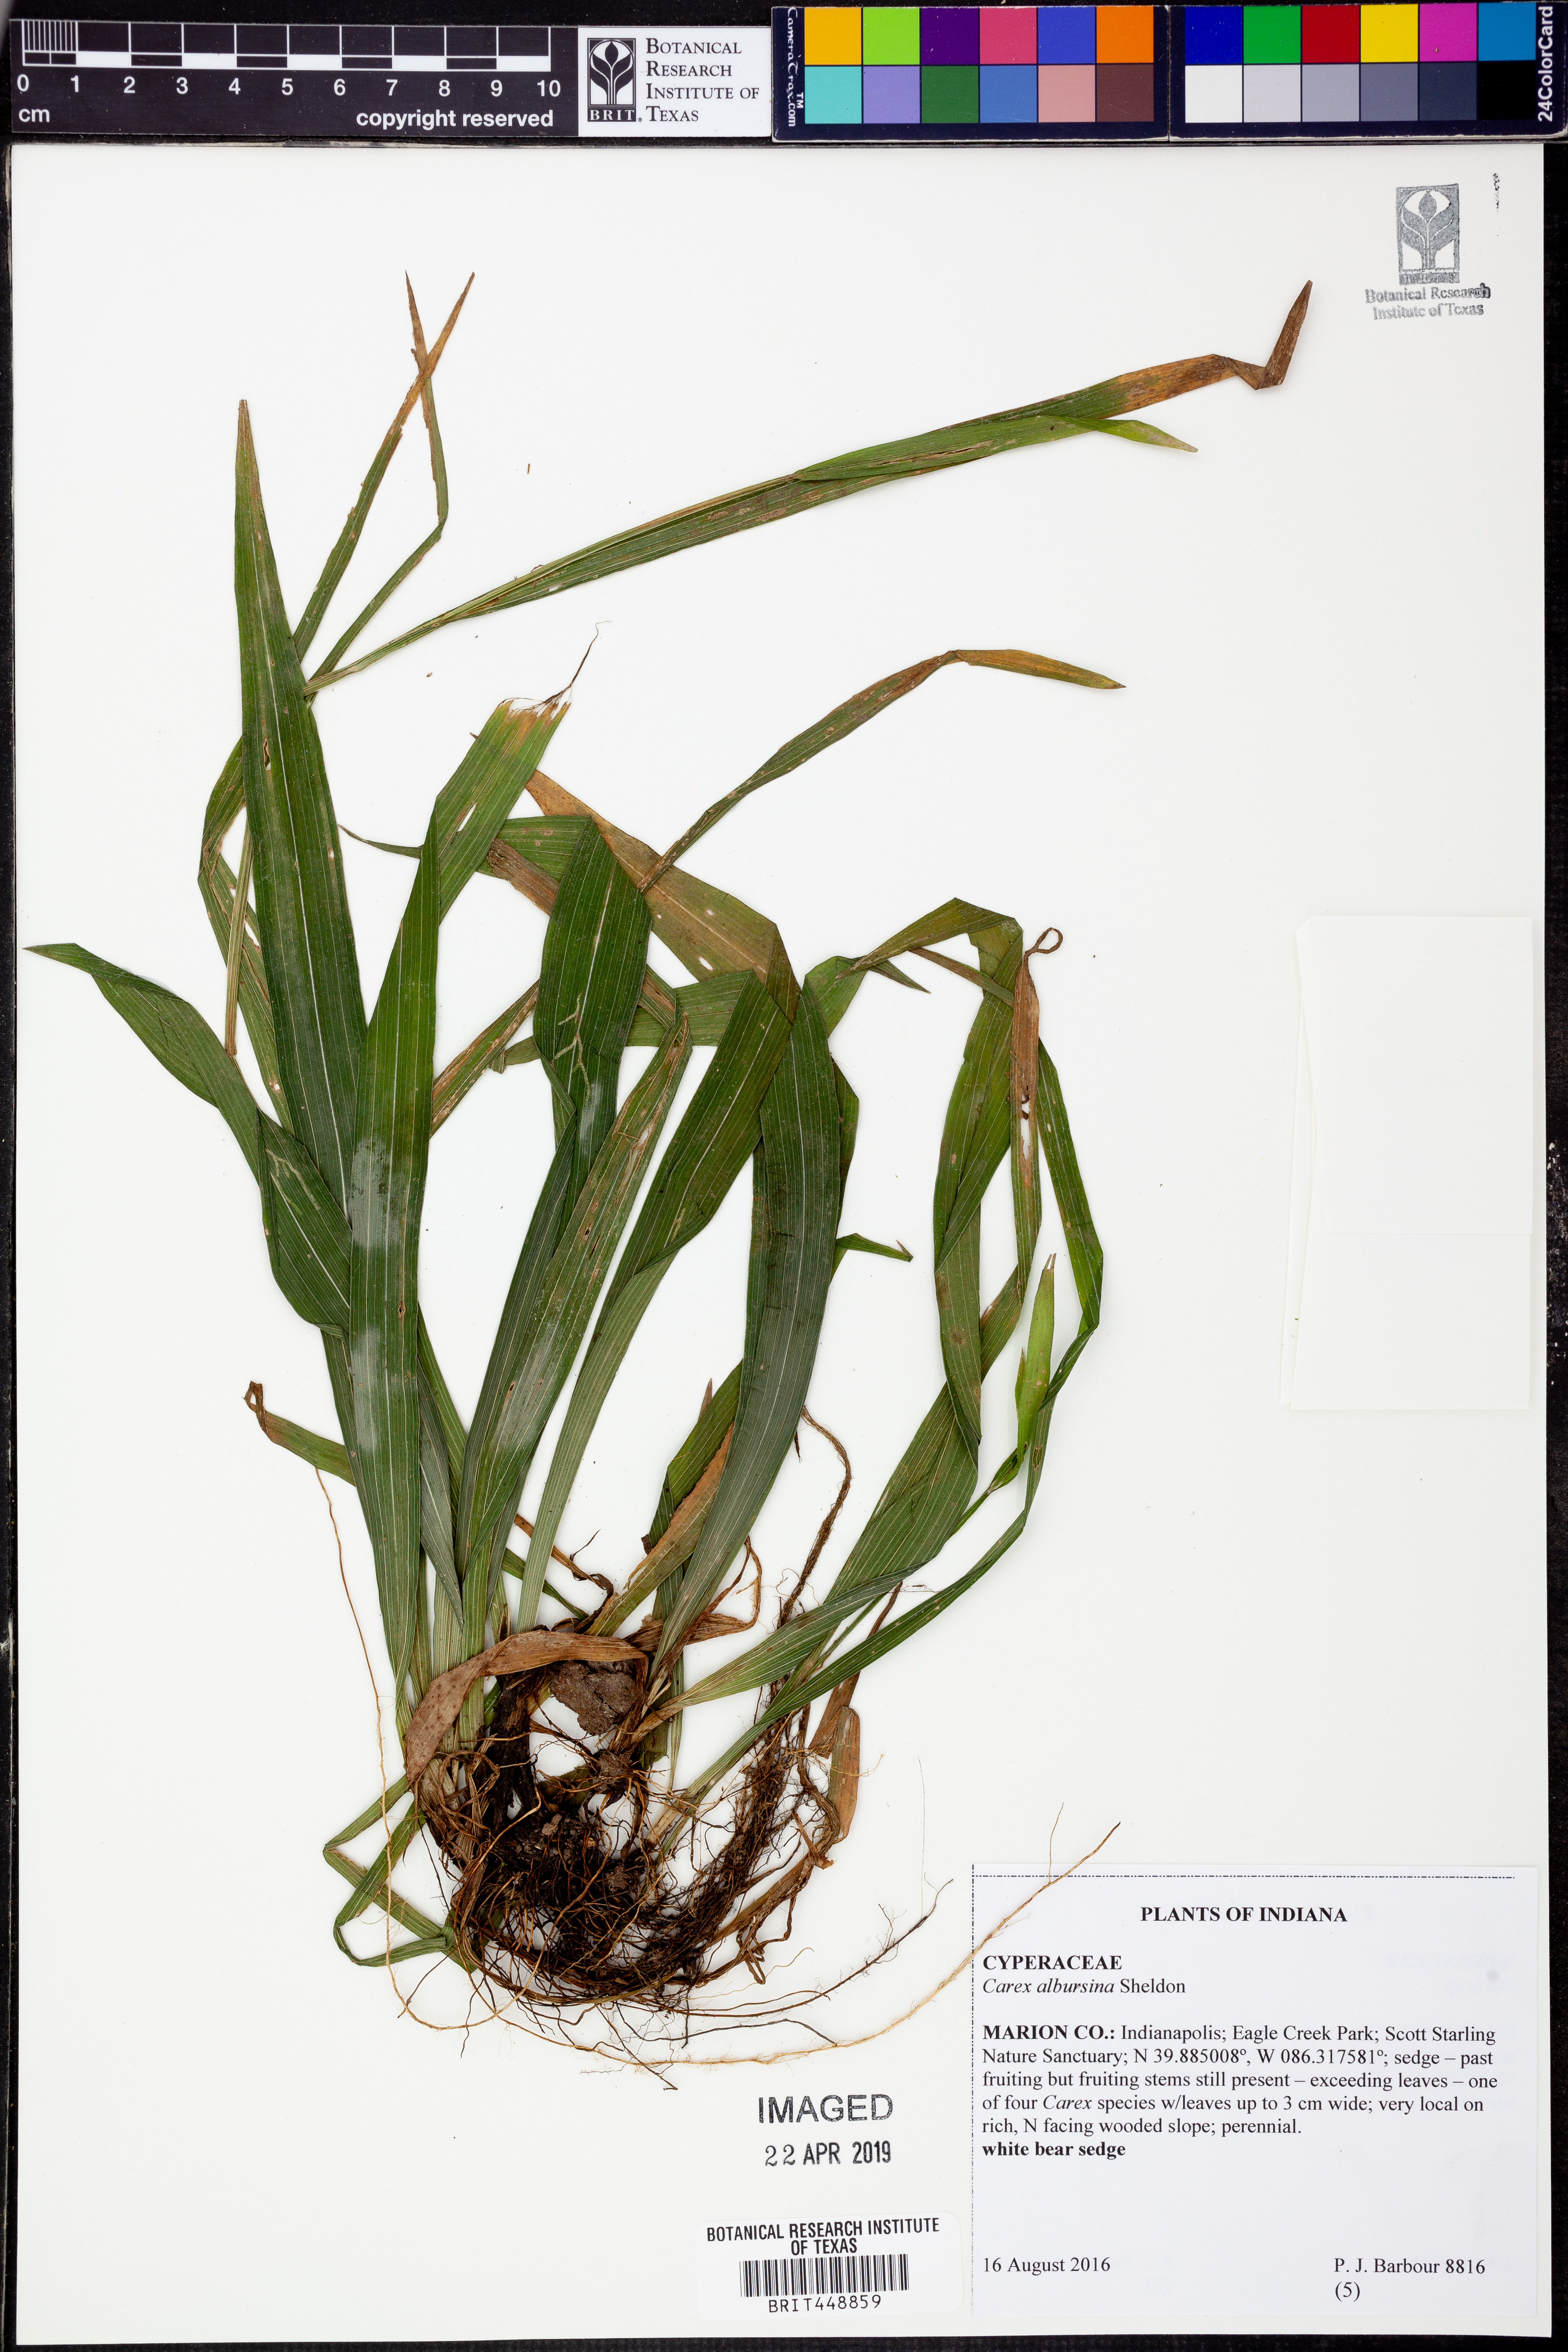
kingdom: Plantae
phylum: Tracheophyta
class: Liliopsida
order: Poales
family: Cyperaceae
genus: Carex
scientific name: Carex albursina
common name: Blunt-scale wood sedge
